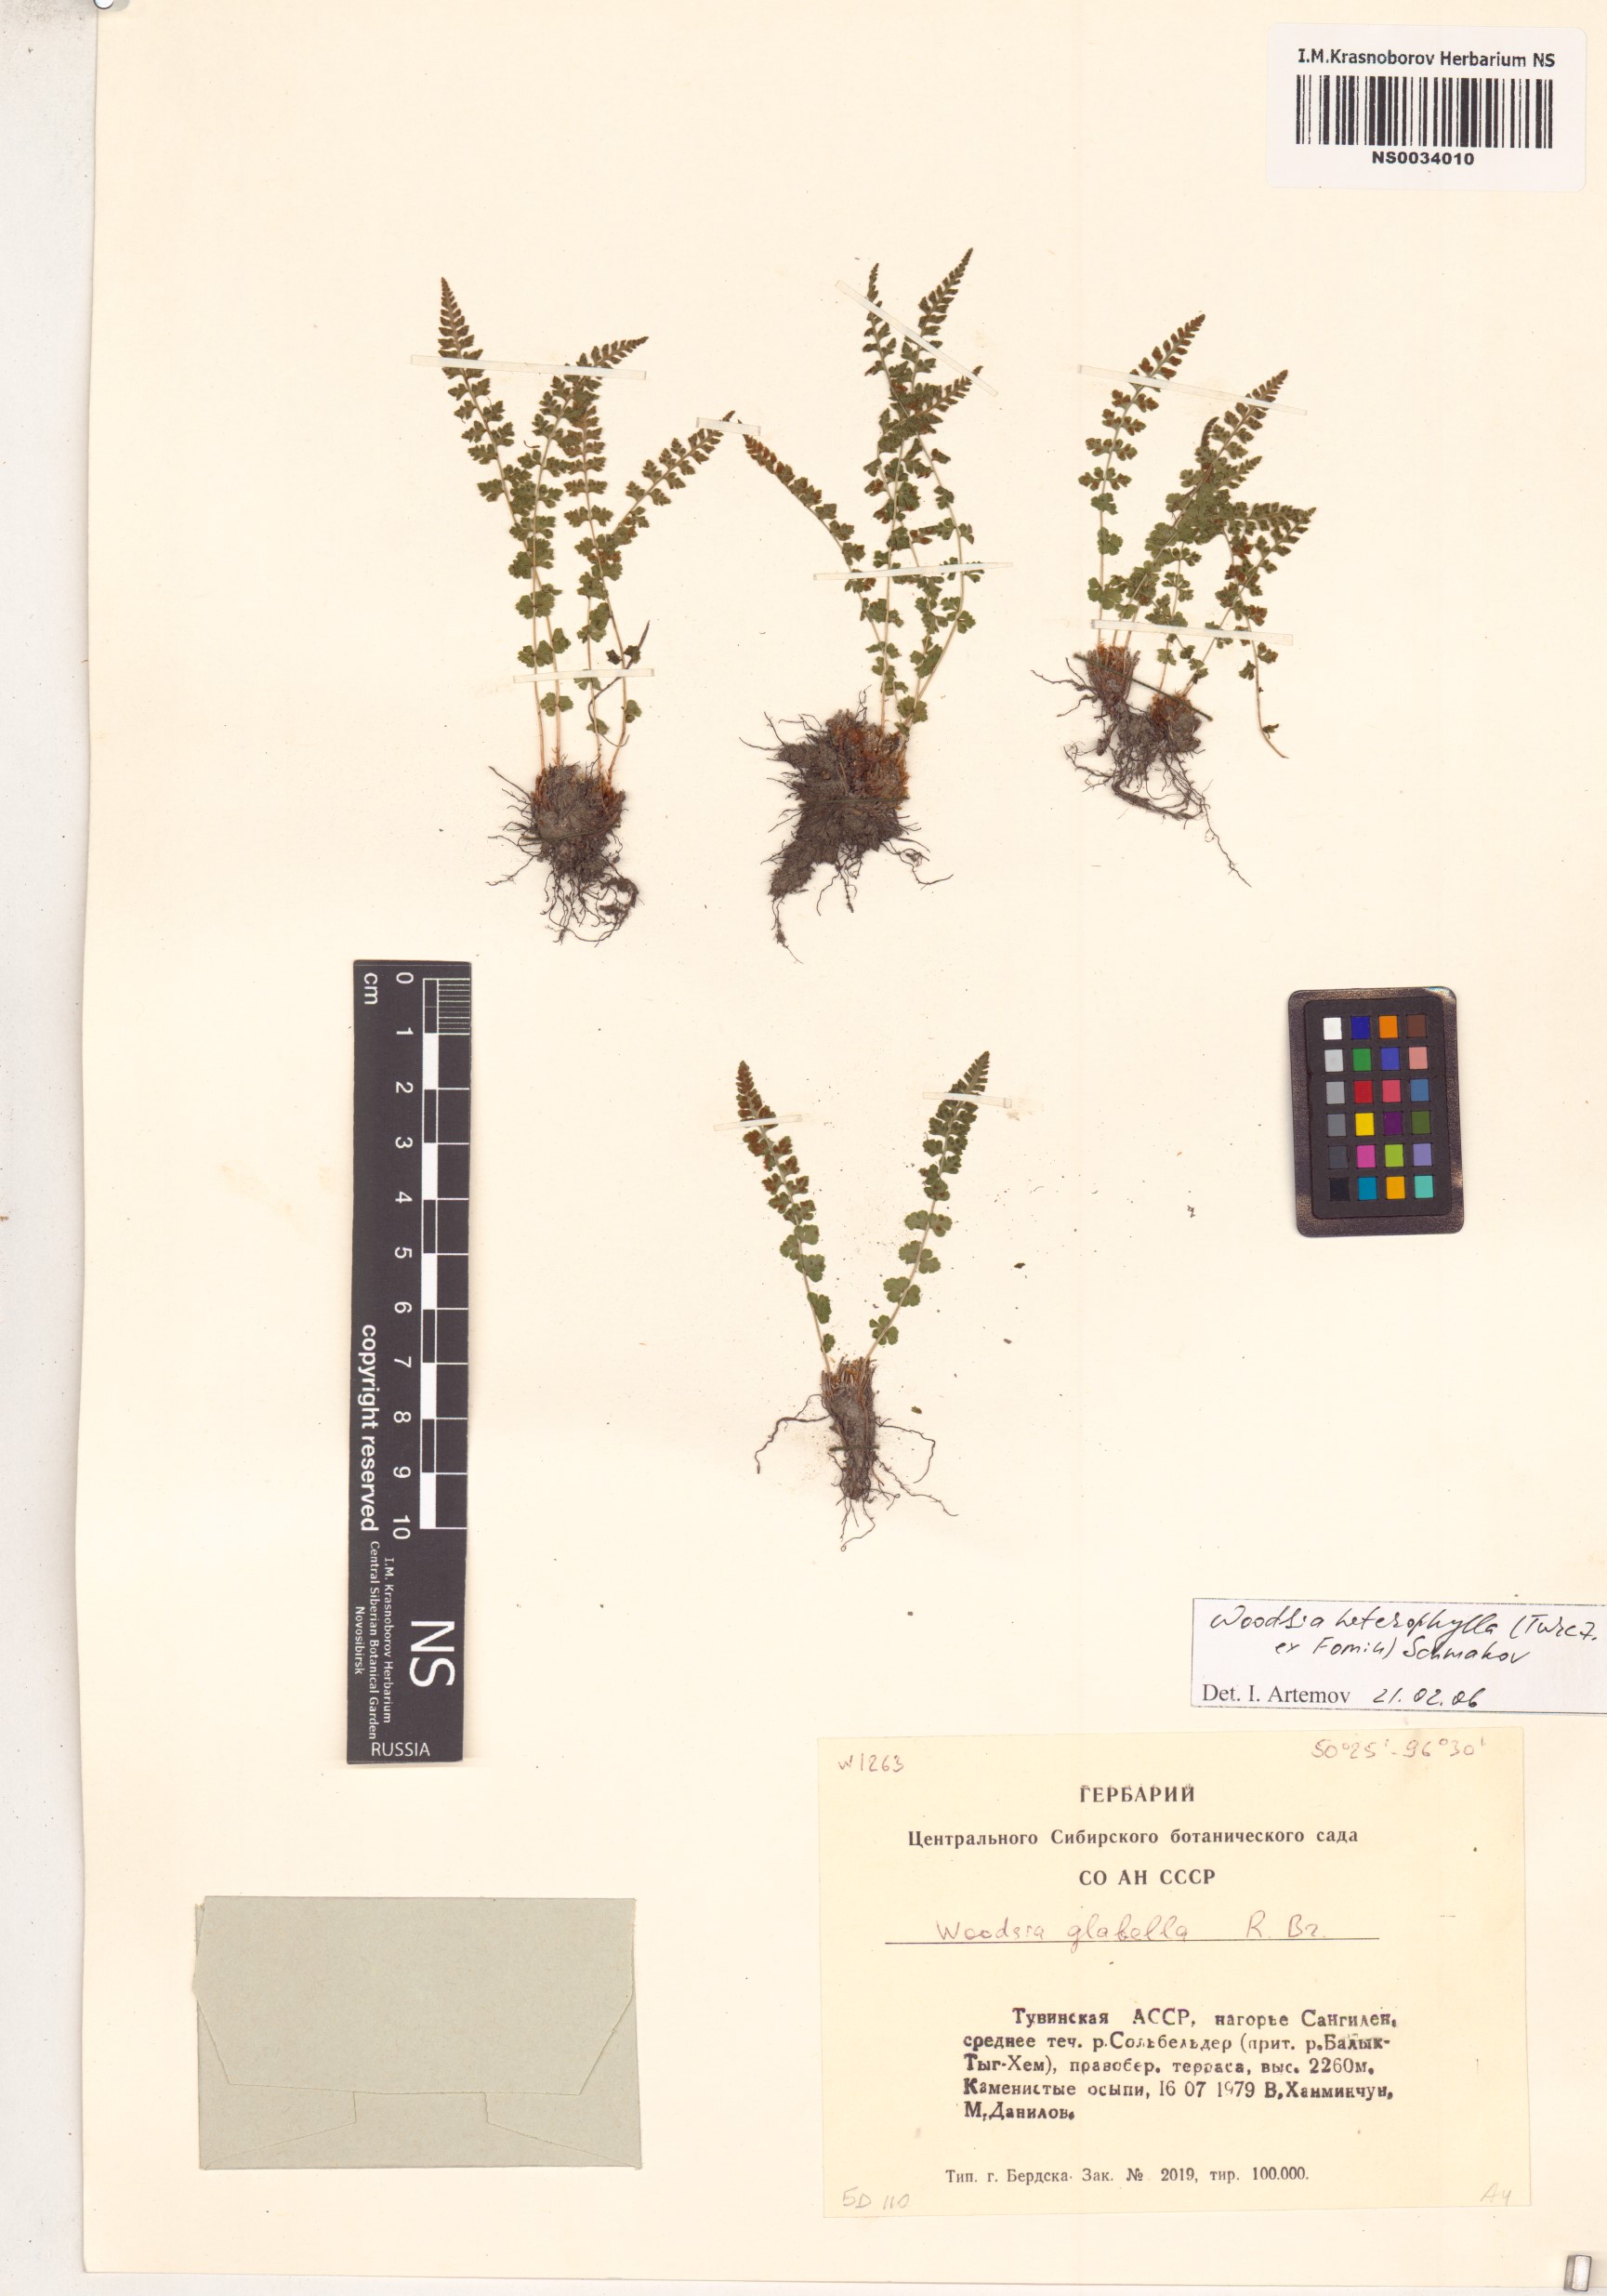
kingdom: Plantae
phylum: Tracheophyta
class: Polypodiopsida
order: Polypodiales
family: Woodsiaceae
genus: Woodsia
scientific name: Woodsia pulchella
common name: Graceful woodsia
